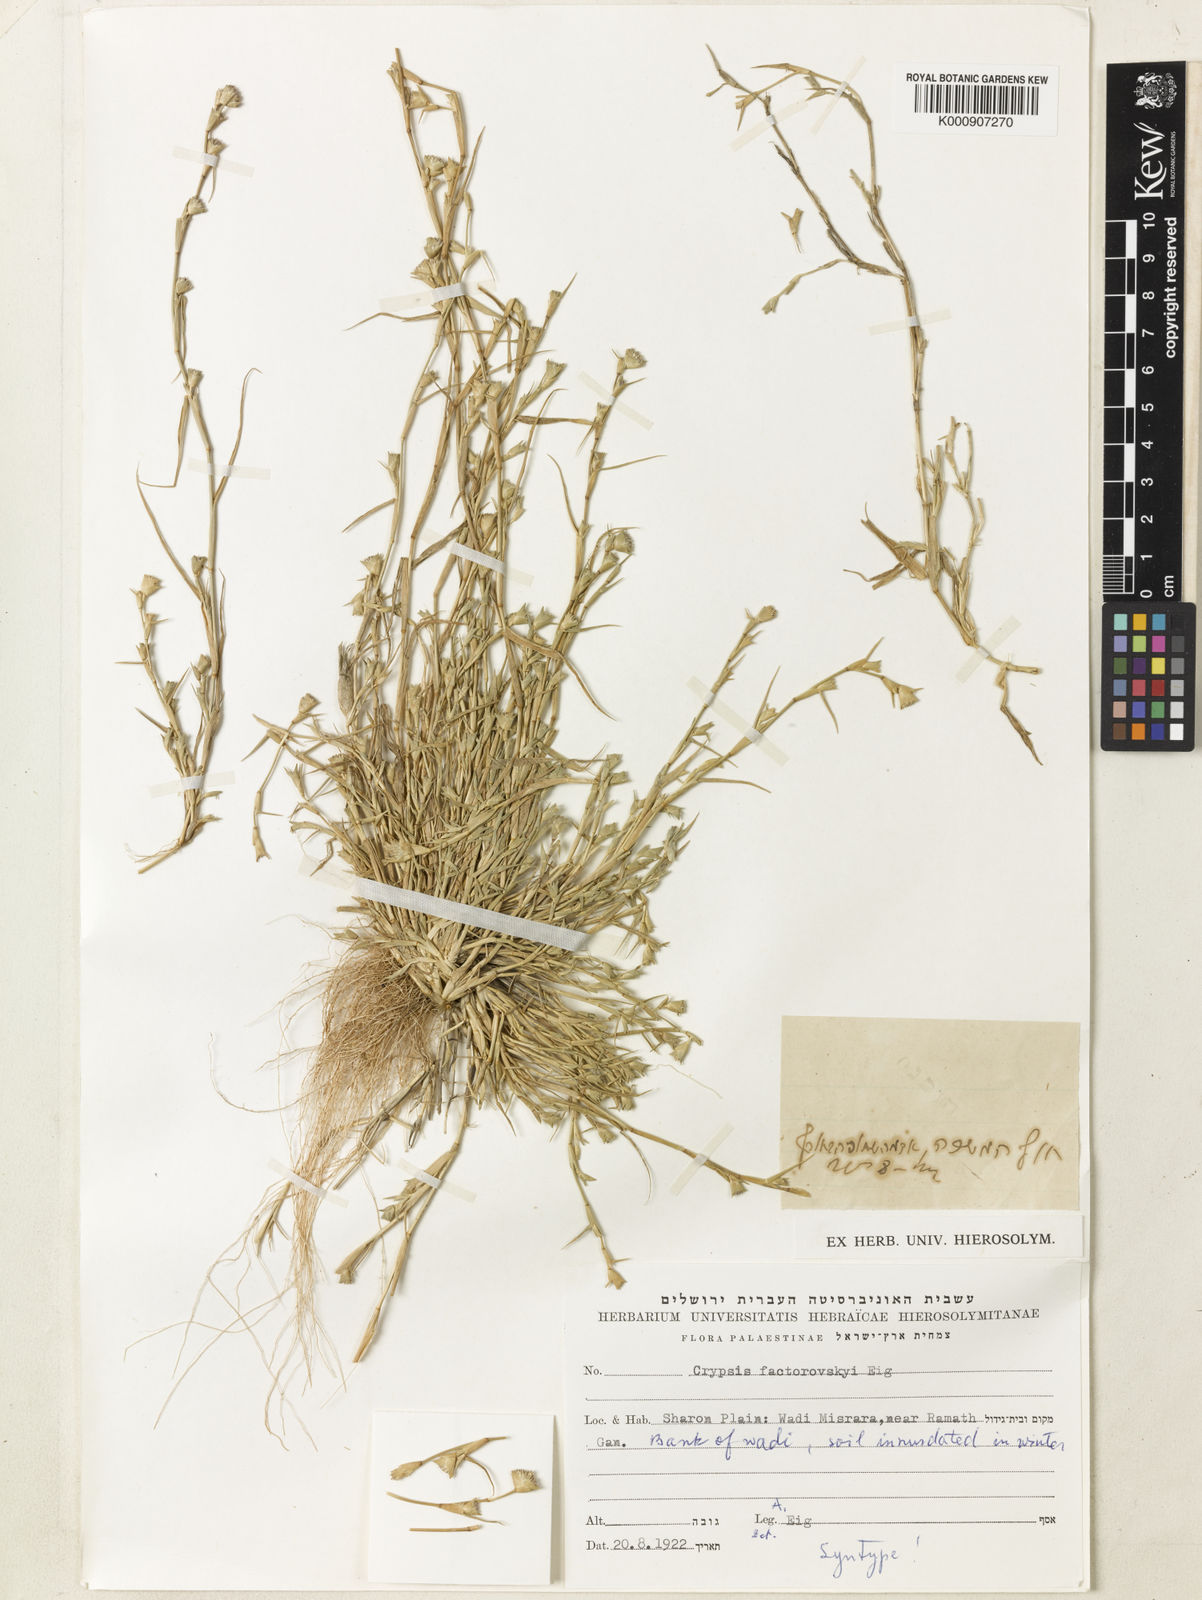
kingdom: Plantae
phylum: Tracheophyta
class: Liliopsida
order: Poales
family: Poaceae
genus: Sporobolus
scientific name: Sporobolus factorovskyi
